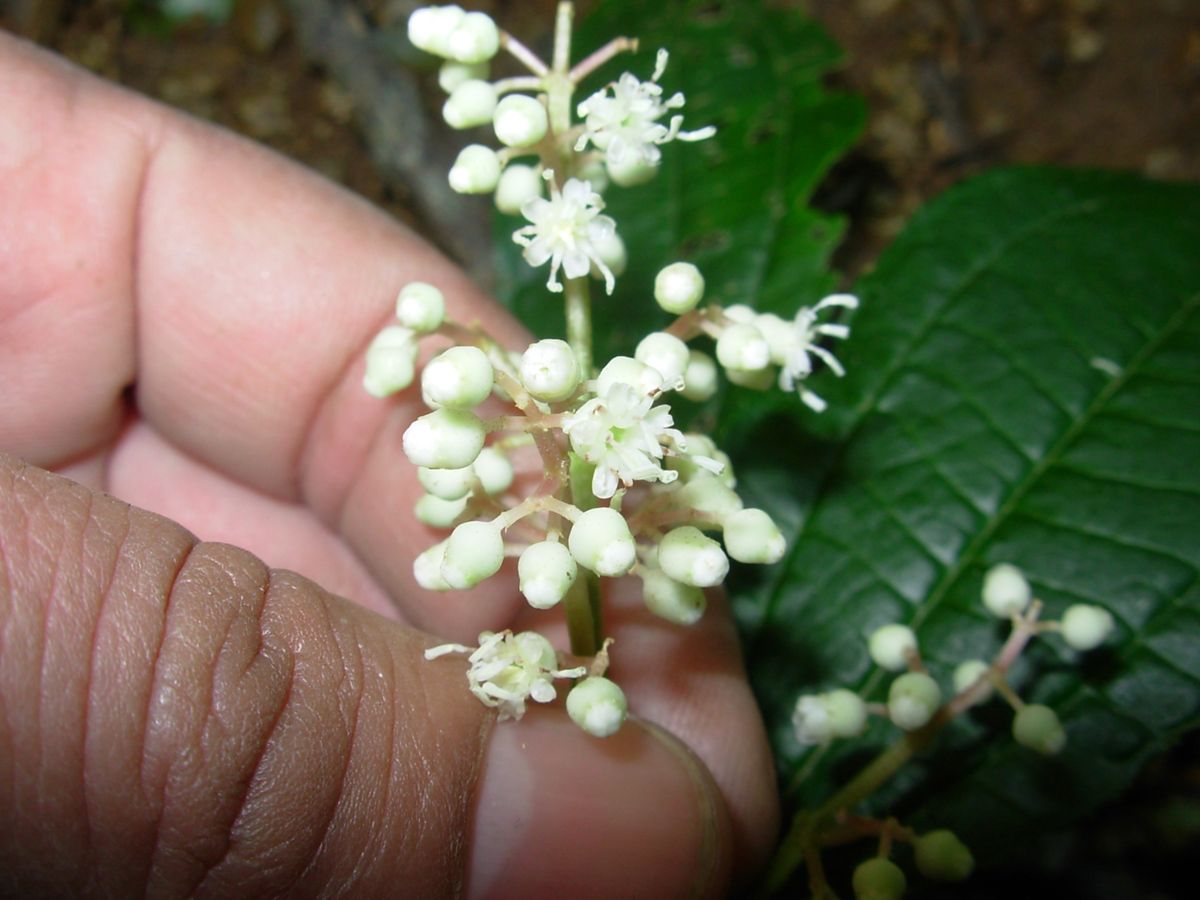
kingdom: Plantae
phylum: Tracheophyta
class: Magnoliopsida
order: Myrtales
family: Melastomataceae
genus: Miconia
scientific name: Miconia glaberrima
